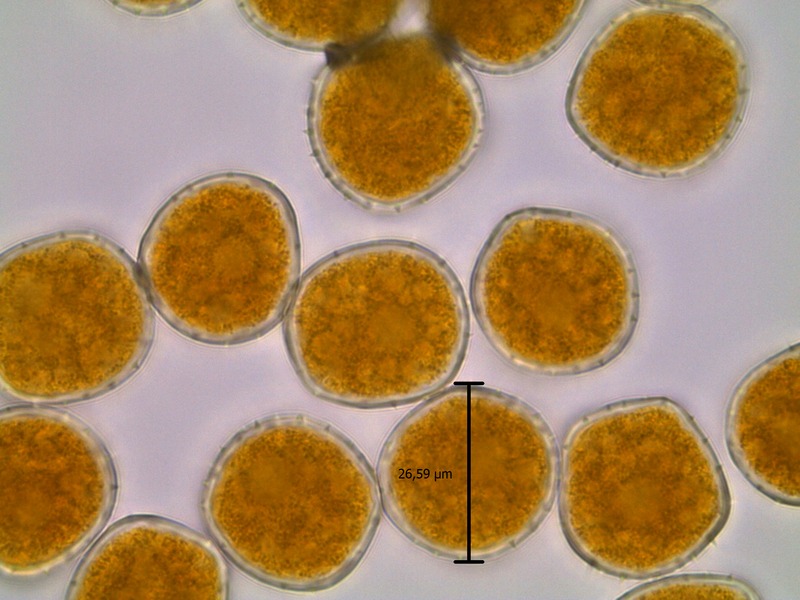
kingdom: Fungi
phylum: Basidiomycota
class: Pucciniomycetes
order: Pucciniales
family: Raveneliaceae
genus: Triphragmium
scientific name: Triphragmium ulmariae
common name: Meadowsweet rust
